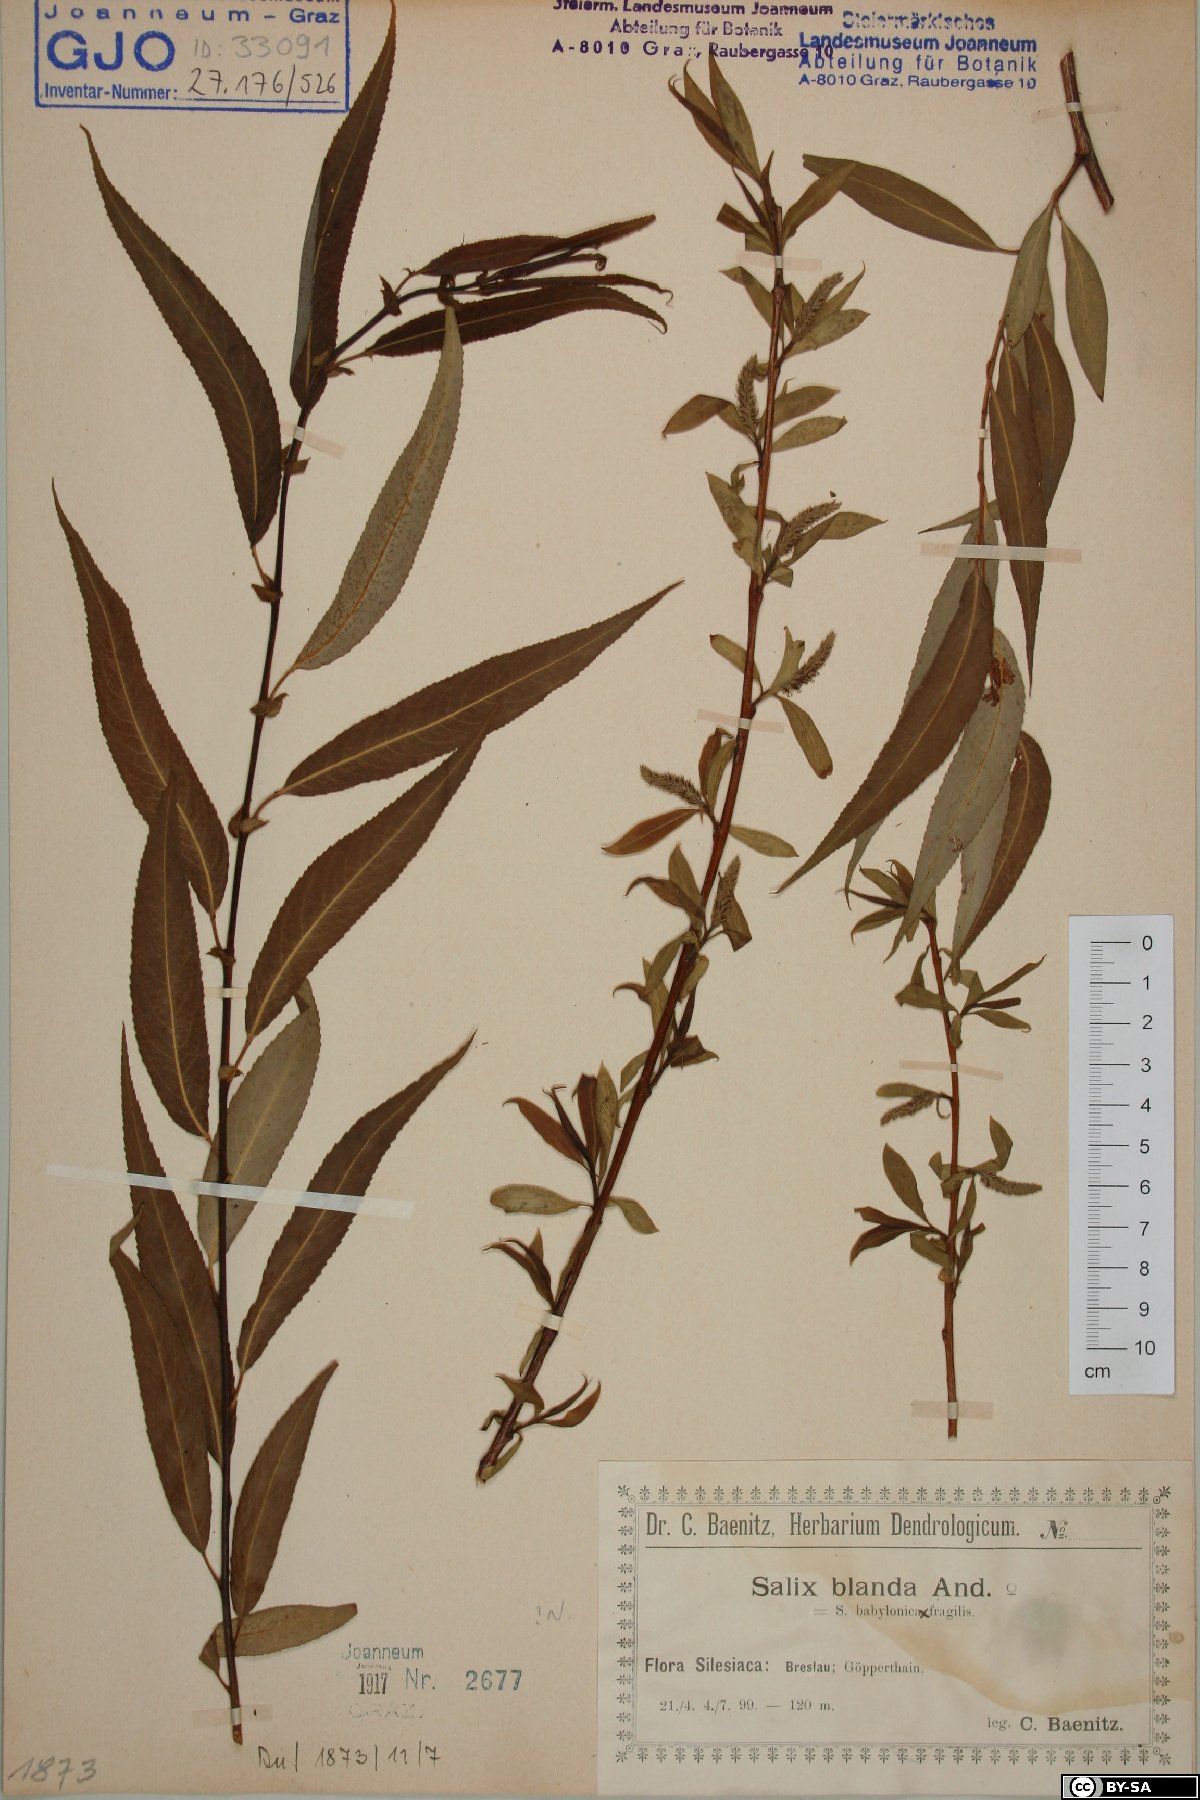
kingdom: Plantae
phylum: Tracheophyta
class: Magnoliopsida
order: Malpighiales
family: Salicaceae
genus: Salix
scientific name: Salix pendulina
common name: Wisconsin weeping willow
